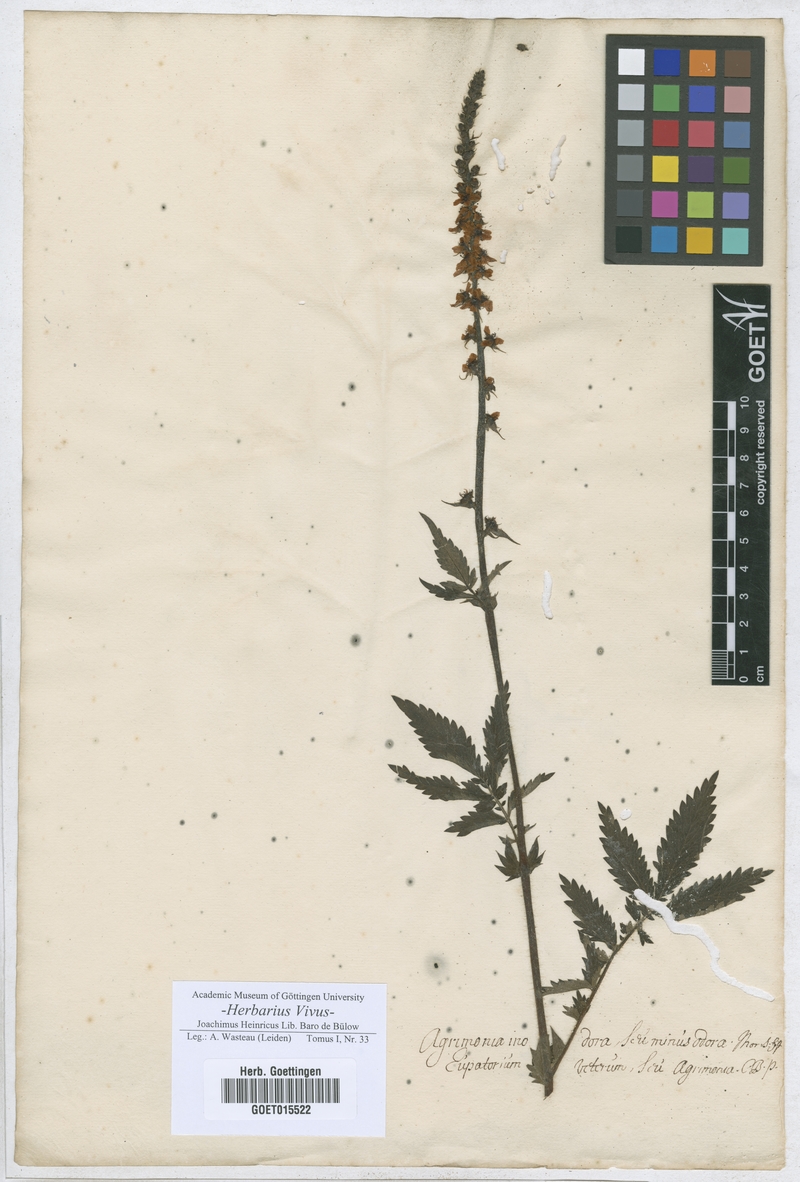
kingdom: Plantae
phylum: Tracheophyta
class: Magnoliopsida
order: Rosales
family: Rosaceae
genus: Agrimonia
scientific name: Agrimonia eupatoria
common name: Agrimony
